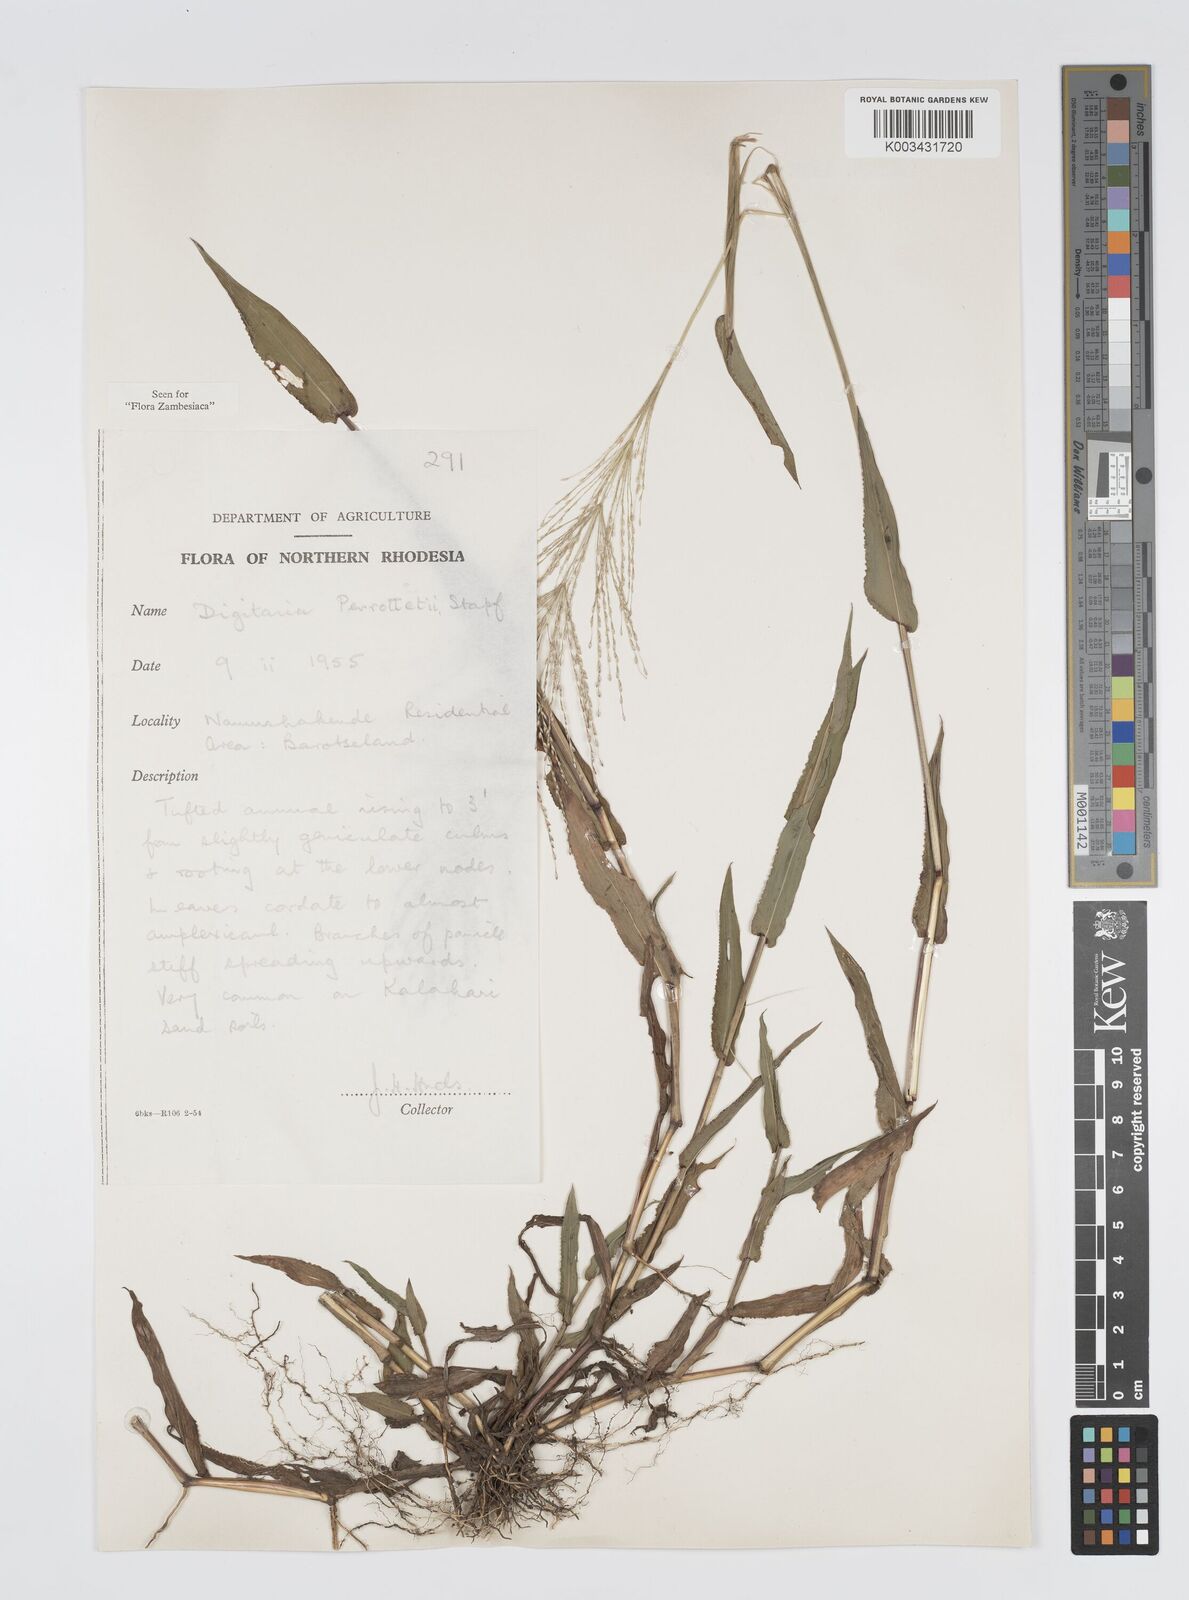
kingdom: Plantae
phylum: Tracheophyta
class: Liliopsida
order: Poales
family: Poaceae
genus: Digitaria
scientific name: Digitaria perrottetii
